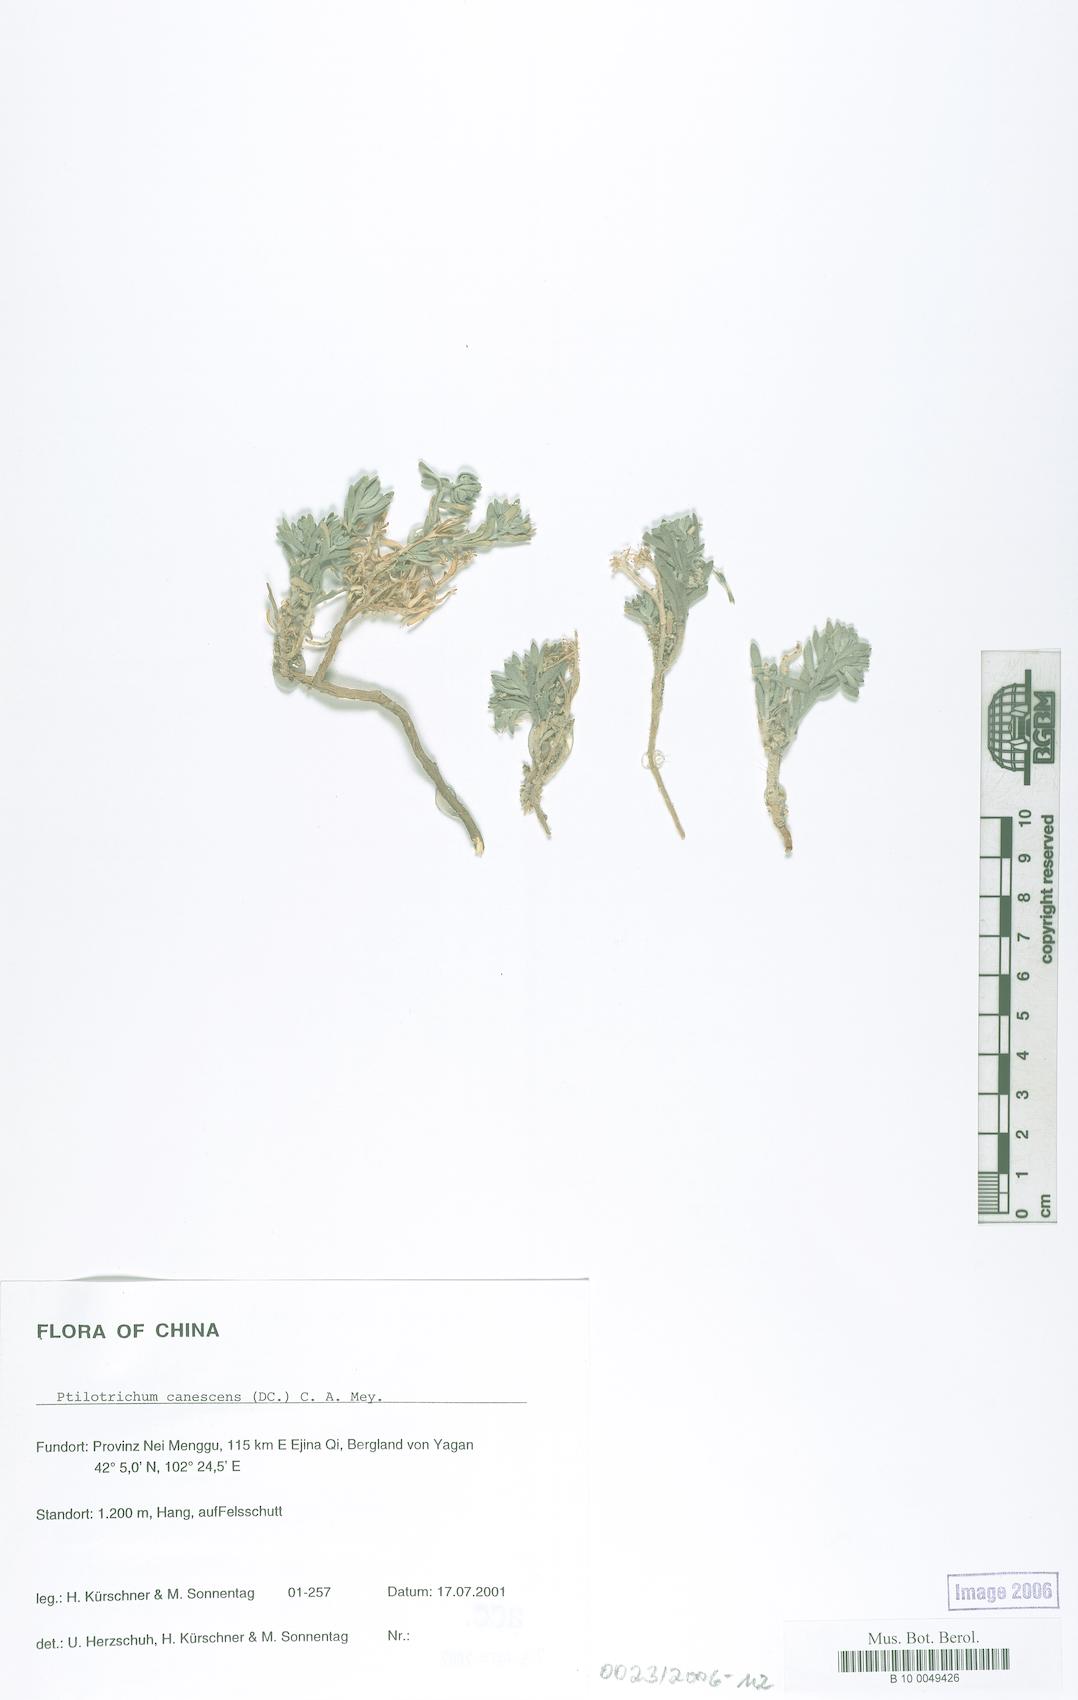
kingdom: Plantae
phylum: Tracheophyta
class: Magnoliopsida
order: Brassicales
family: Brassicaceae
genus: Stevenia
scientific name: Stevenia canescens
